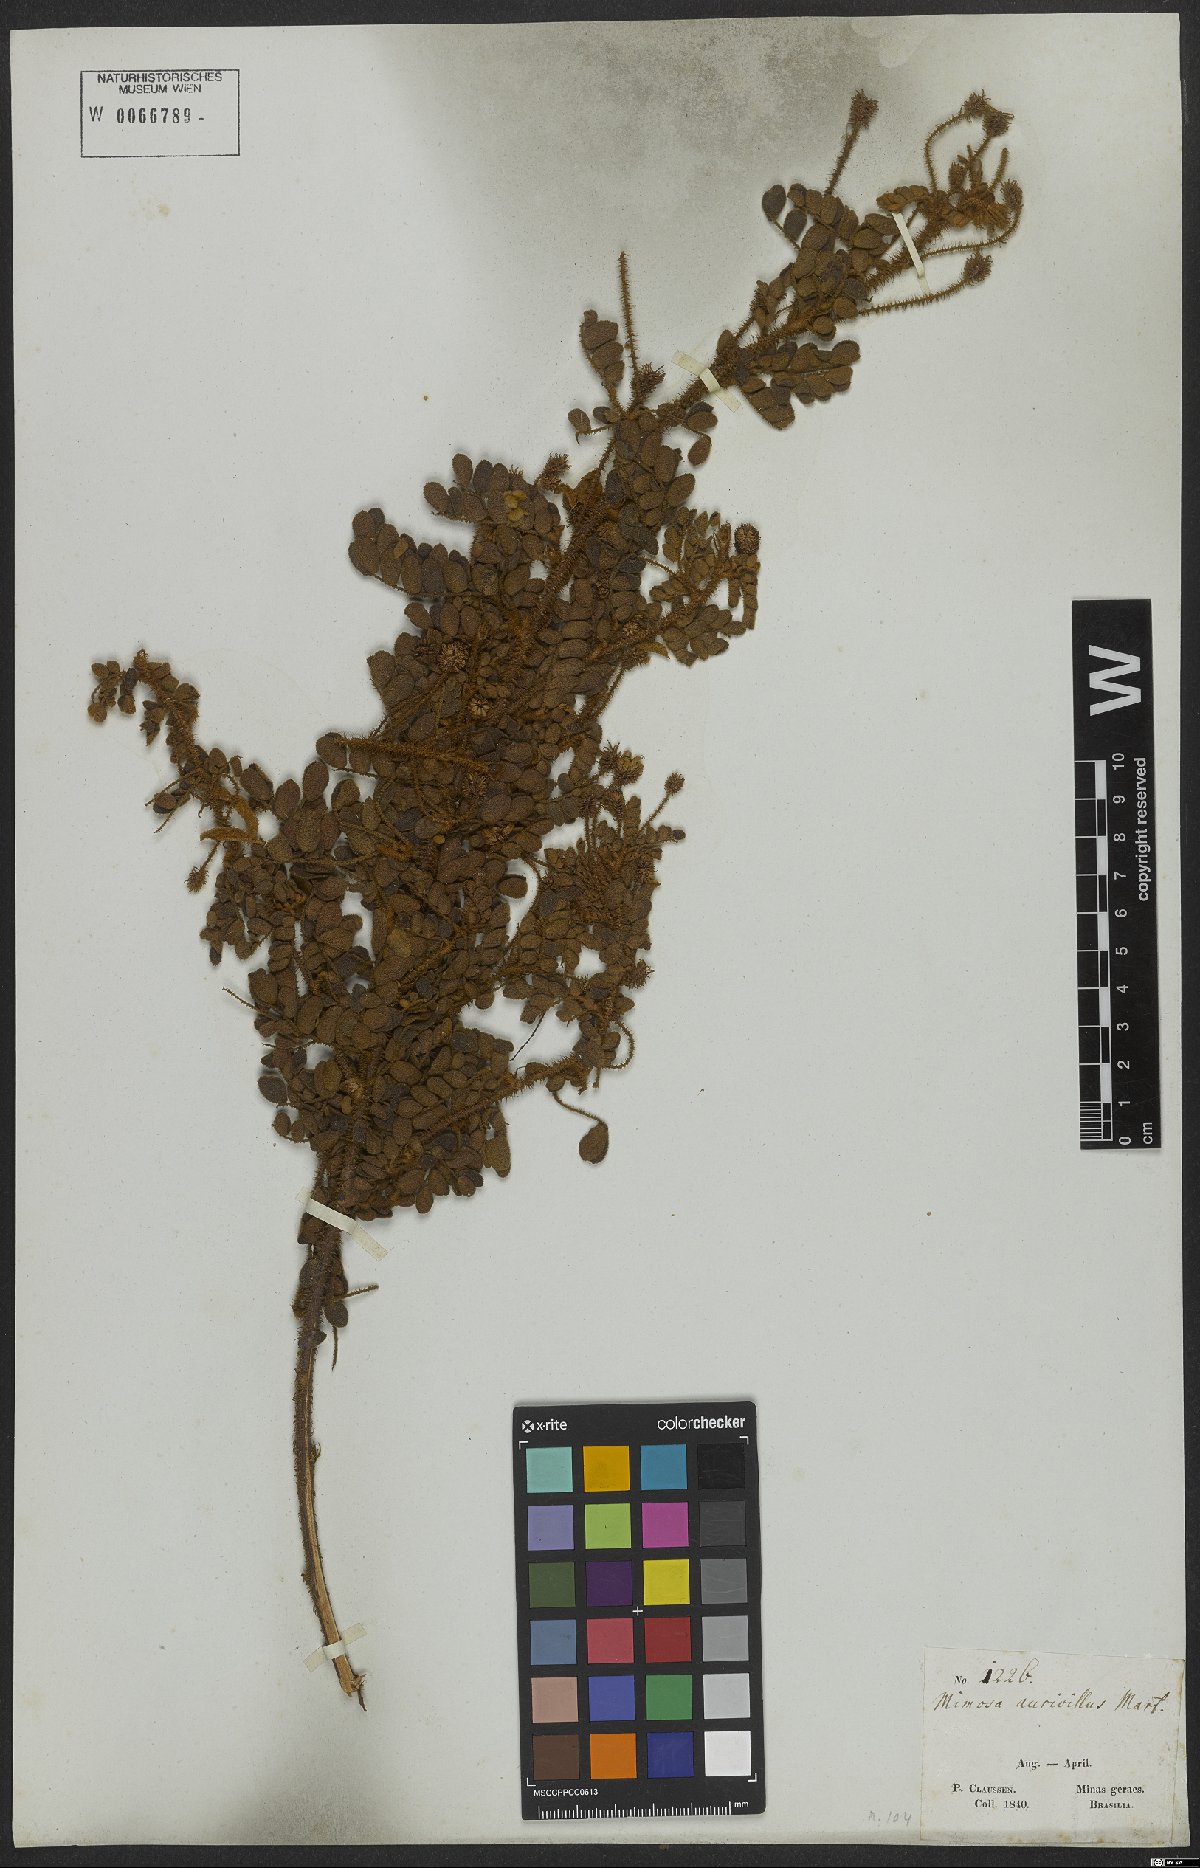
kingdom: Plantae
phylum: Tracheophyta
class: Magnoliopsida
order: Fabales
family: Fabaceae
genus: Mimosa
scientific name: Mimosa aurivillus
